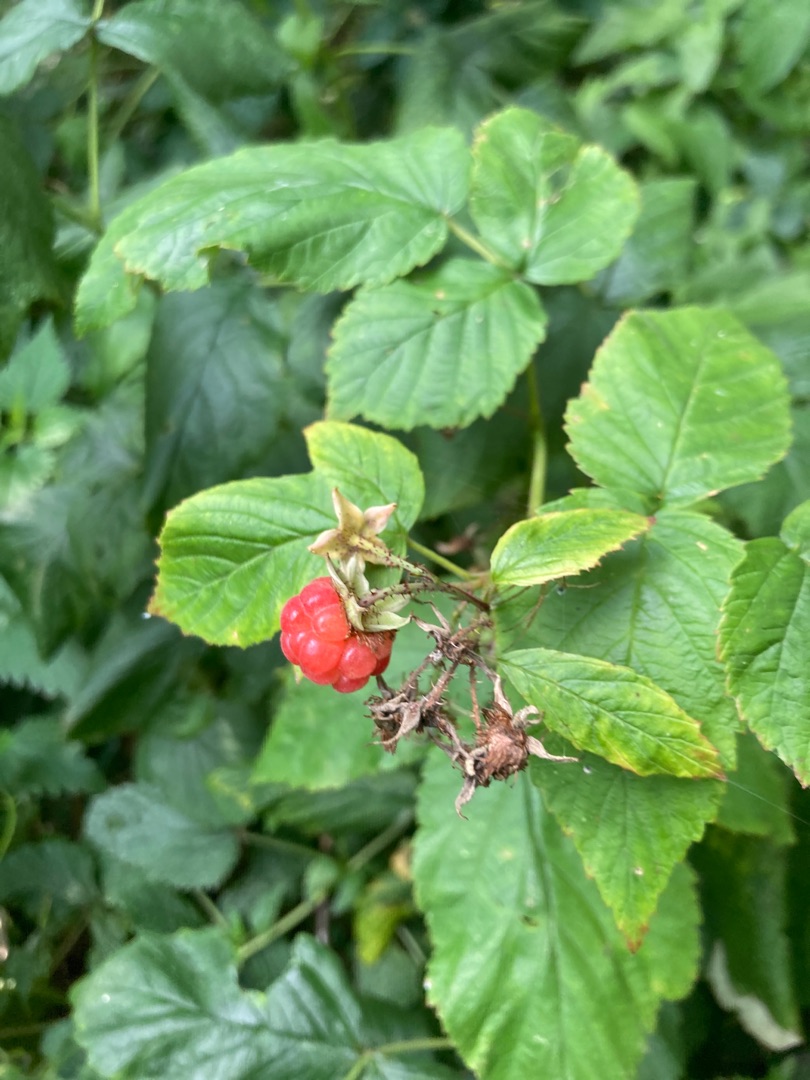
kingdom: Plantae
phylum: Tracheophyta
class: Magnoliopsida
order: Rosales
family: Rosaceae
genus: Rubus
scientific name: Rubus idaeus
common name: Hindbær
